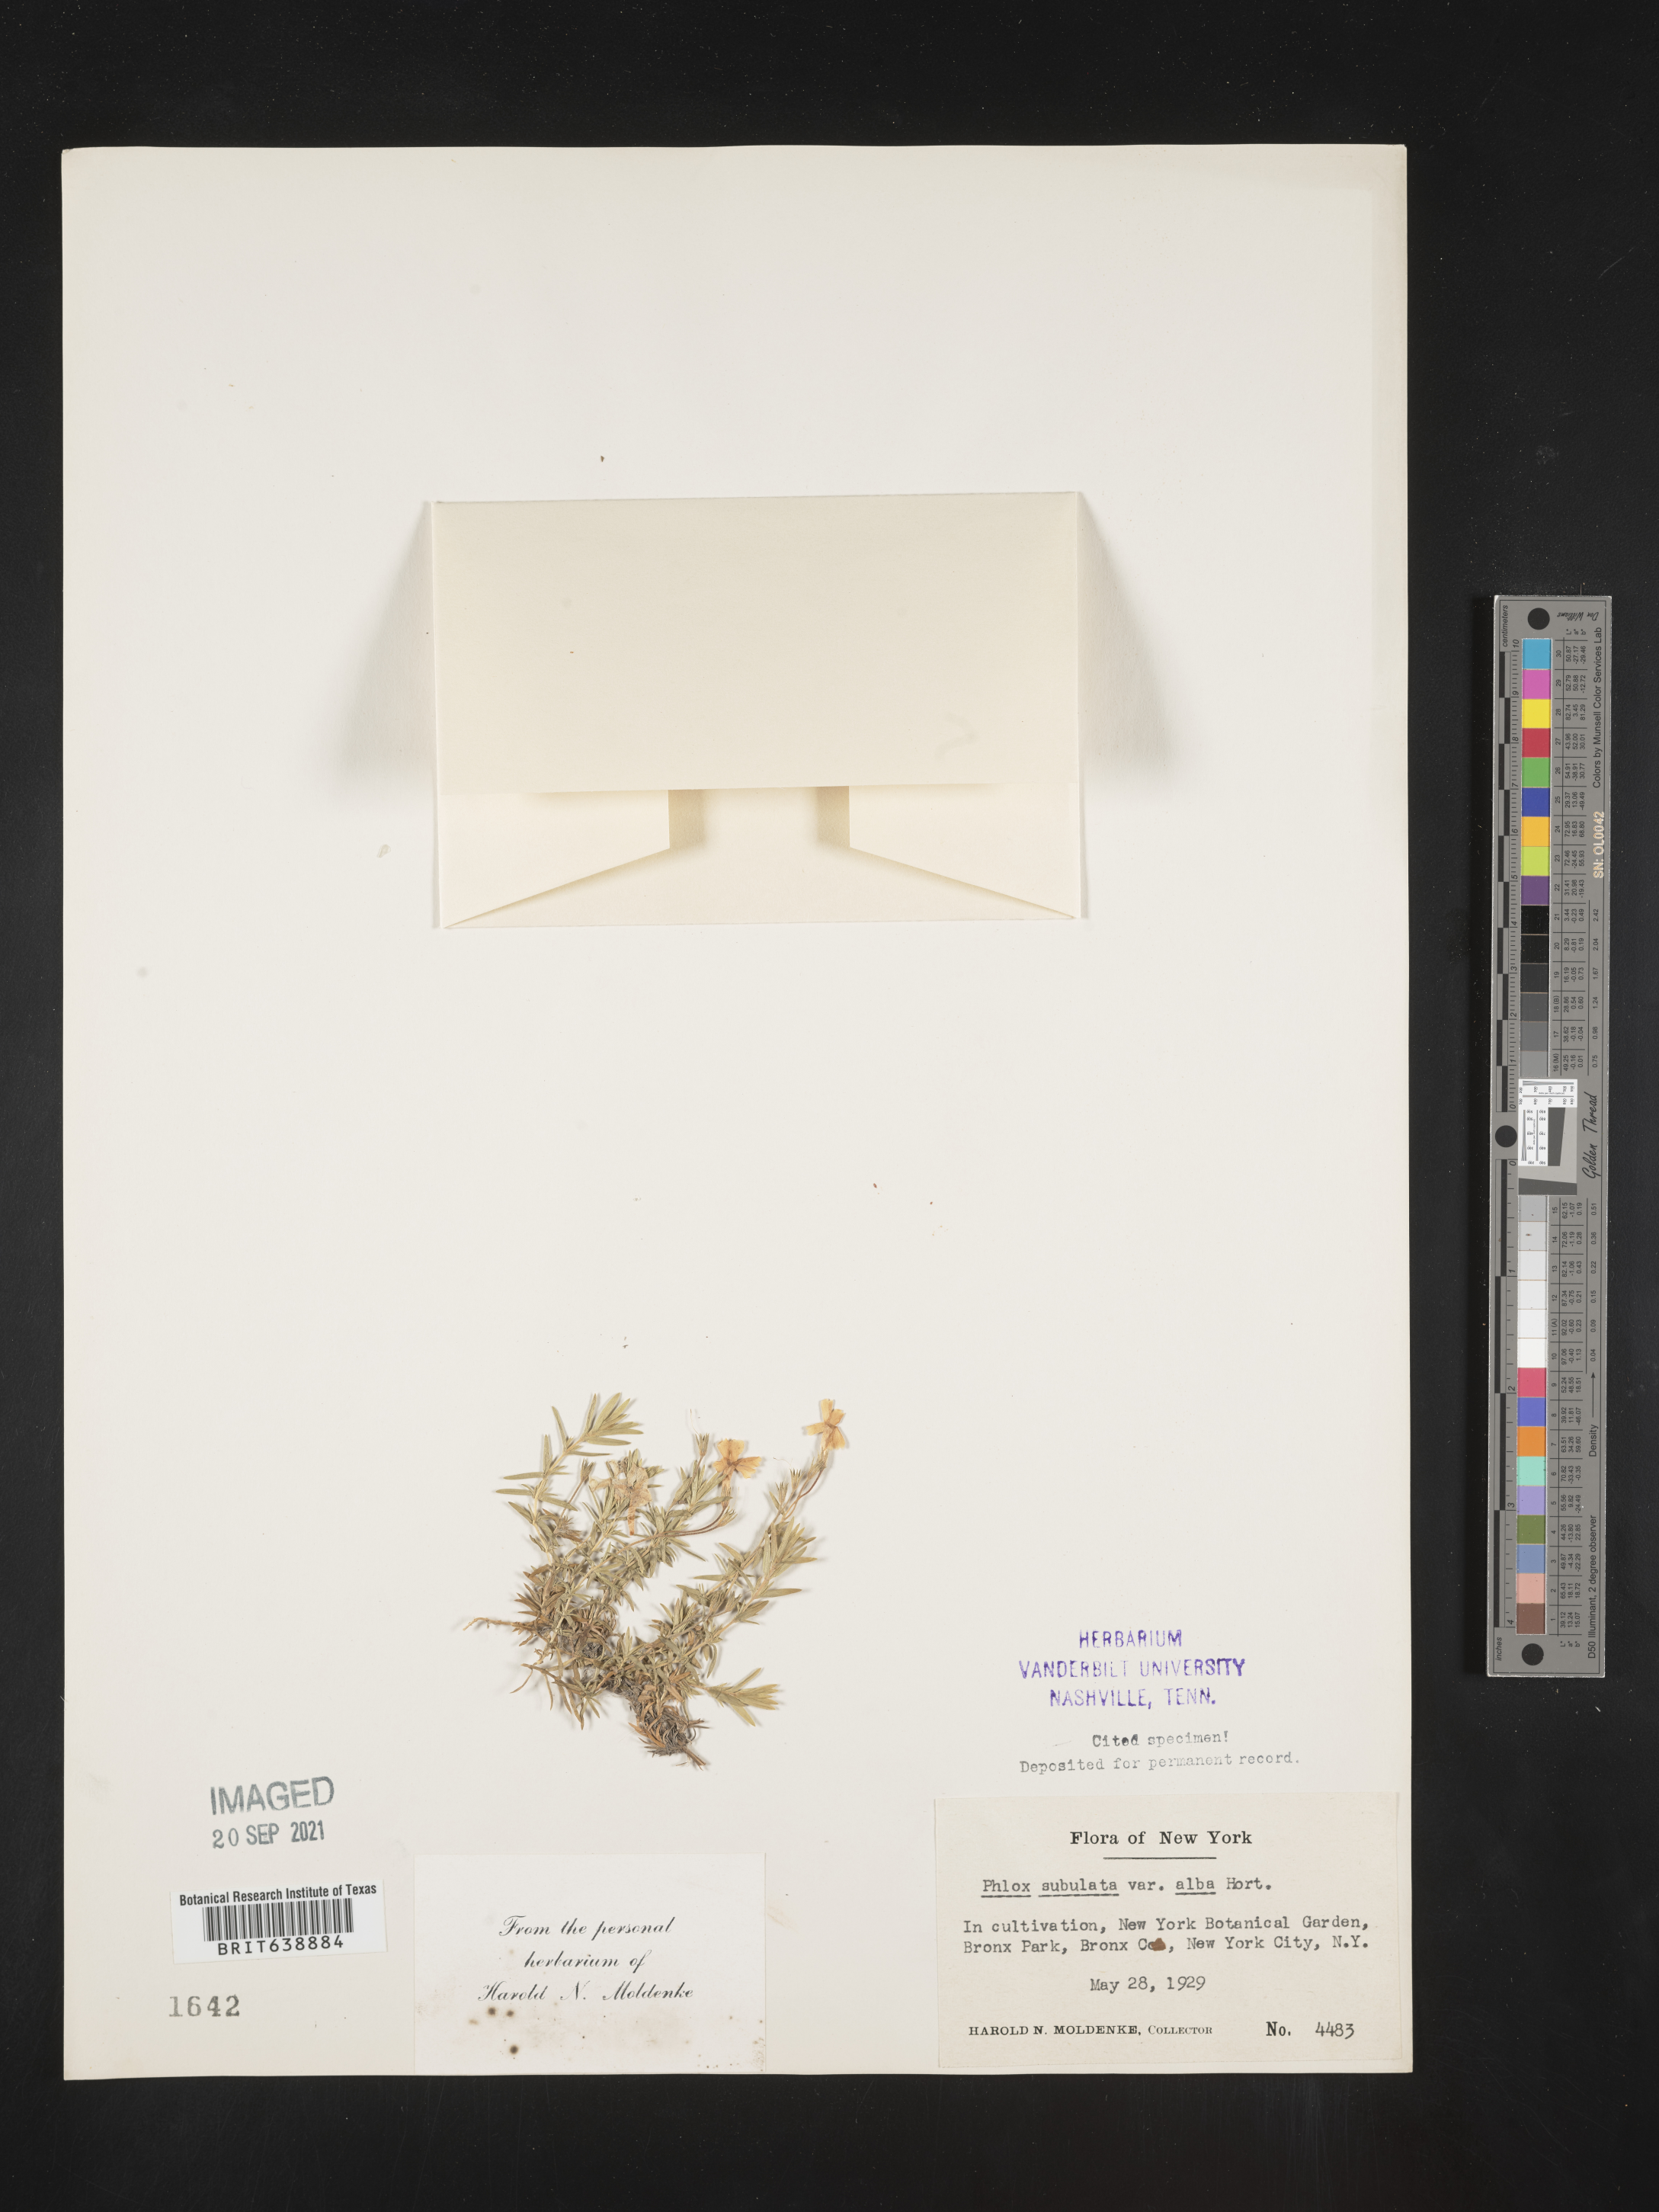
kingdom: Plantae
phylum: Tracheophyta
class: Magnoliopsida
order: Ericales
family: Polemoniaceae
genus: Phlox
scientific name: Phlox
